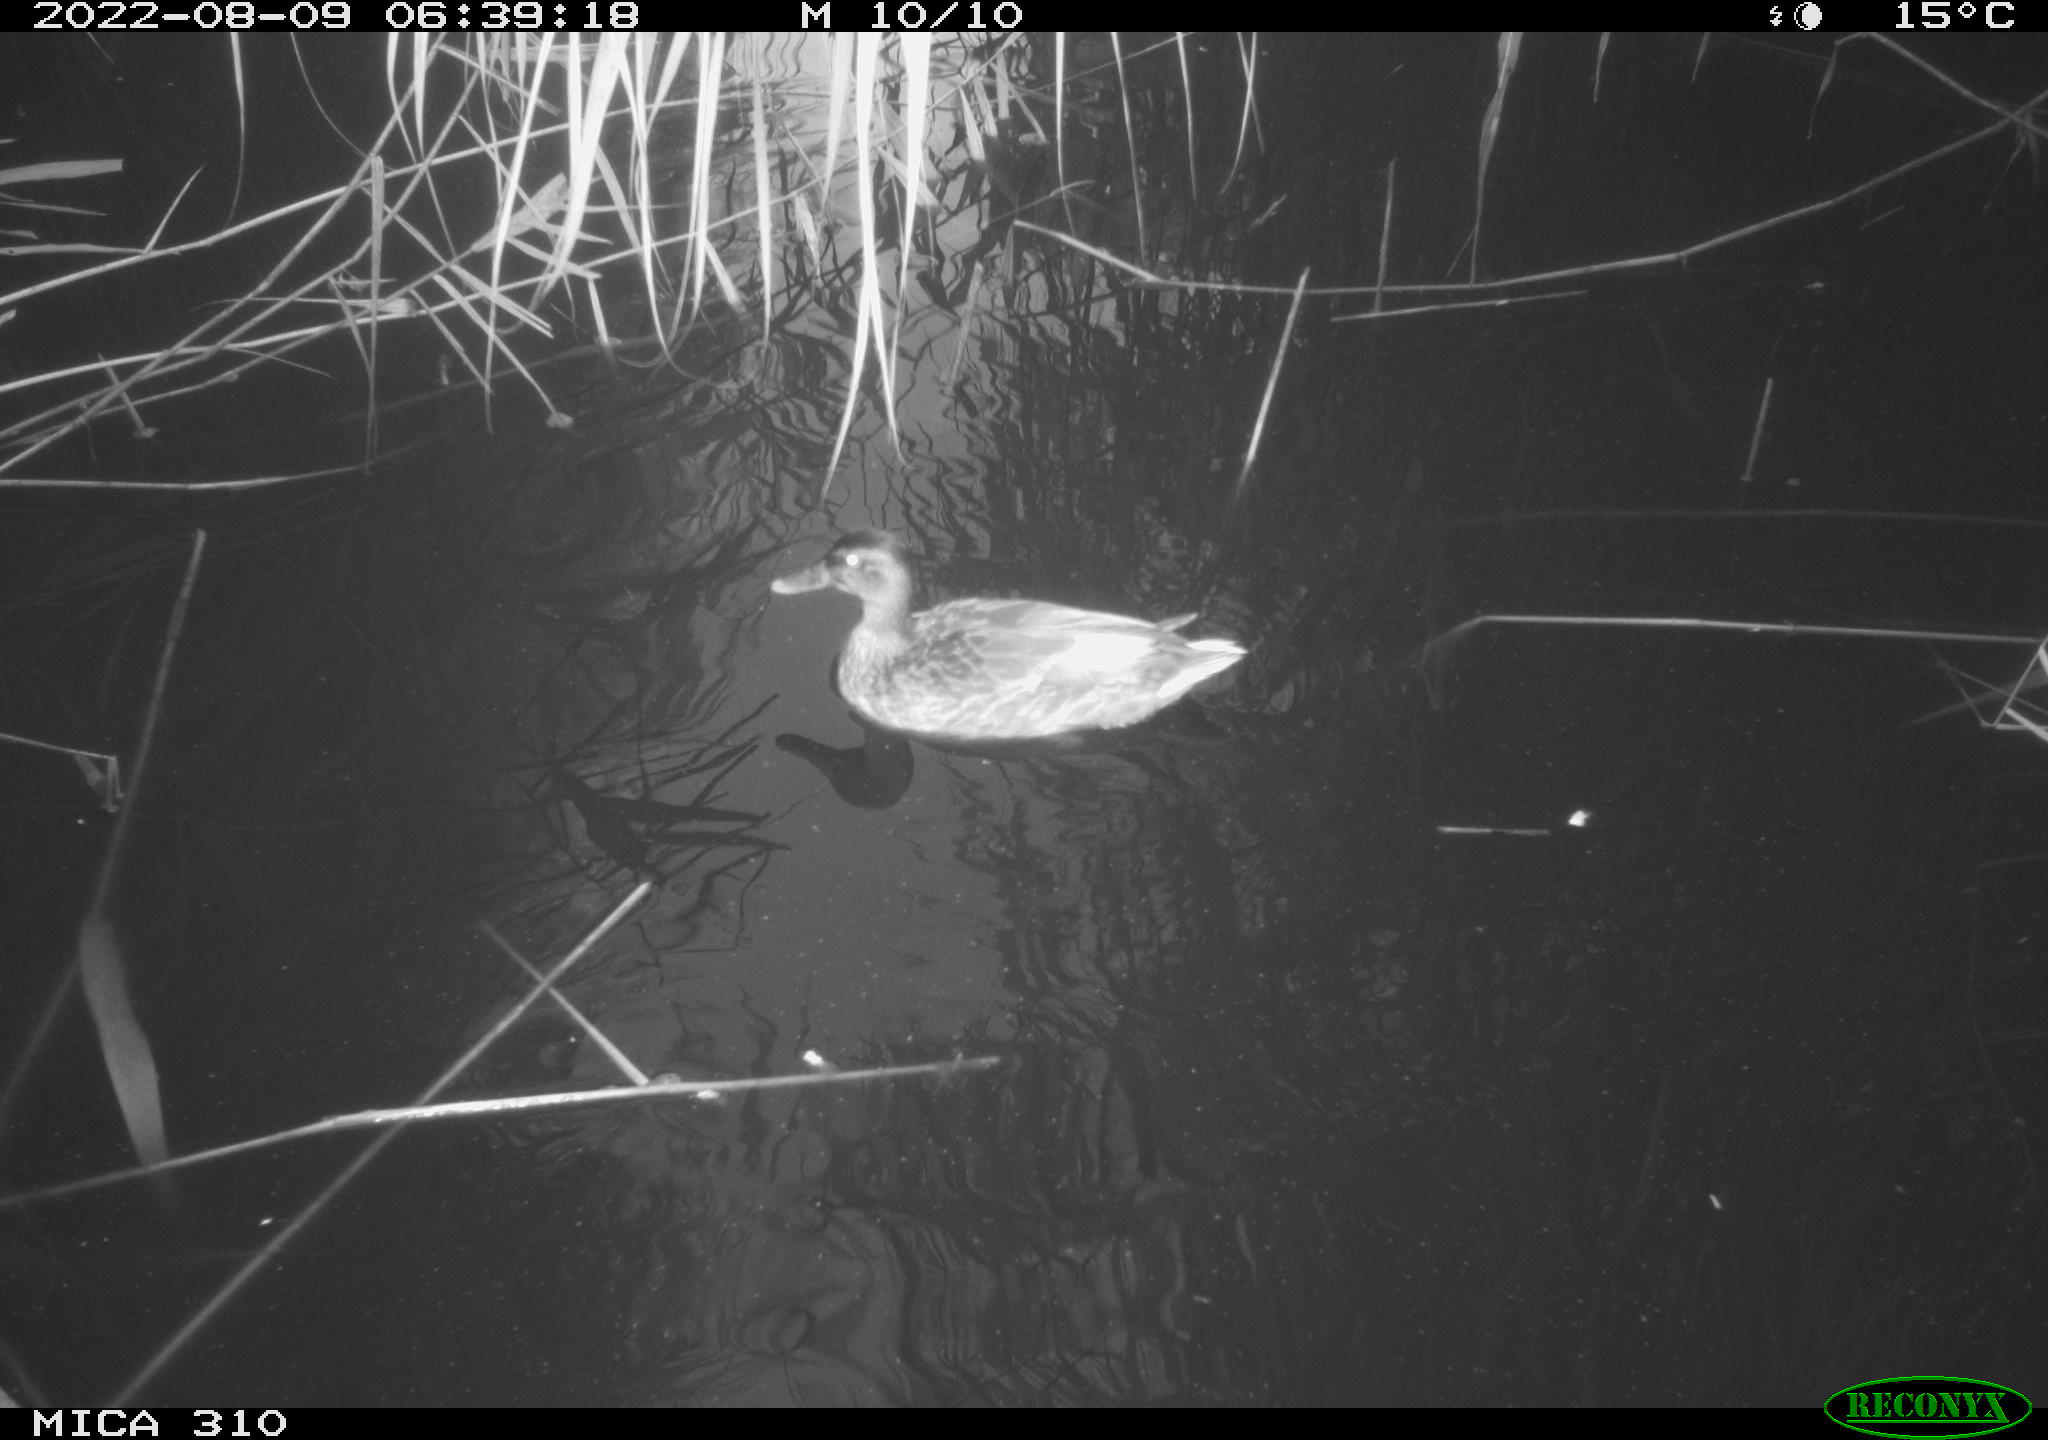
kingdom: Animalia
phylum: Chordata
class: Aves
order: Anseriformes
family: Anatidae
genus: Anas
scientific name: Anas platyrhynchos
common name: Mallard
